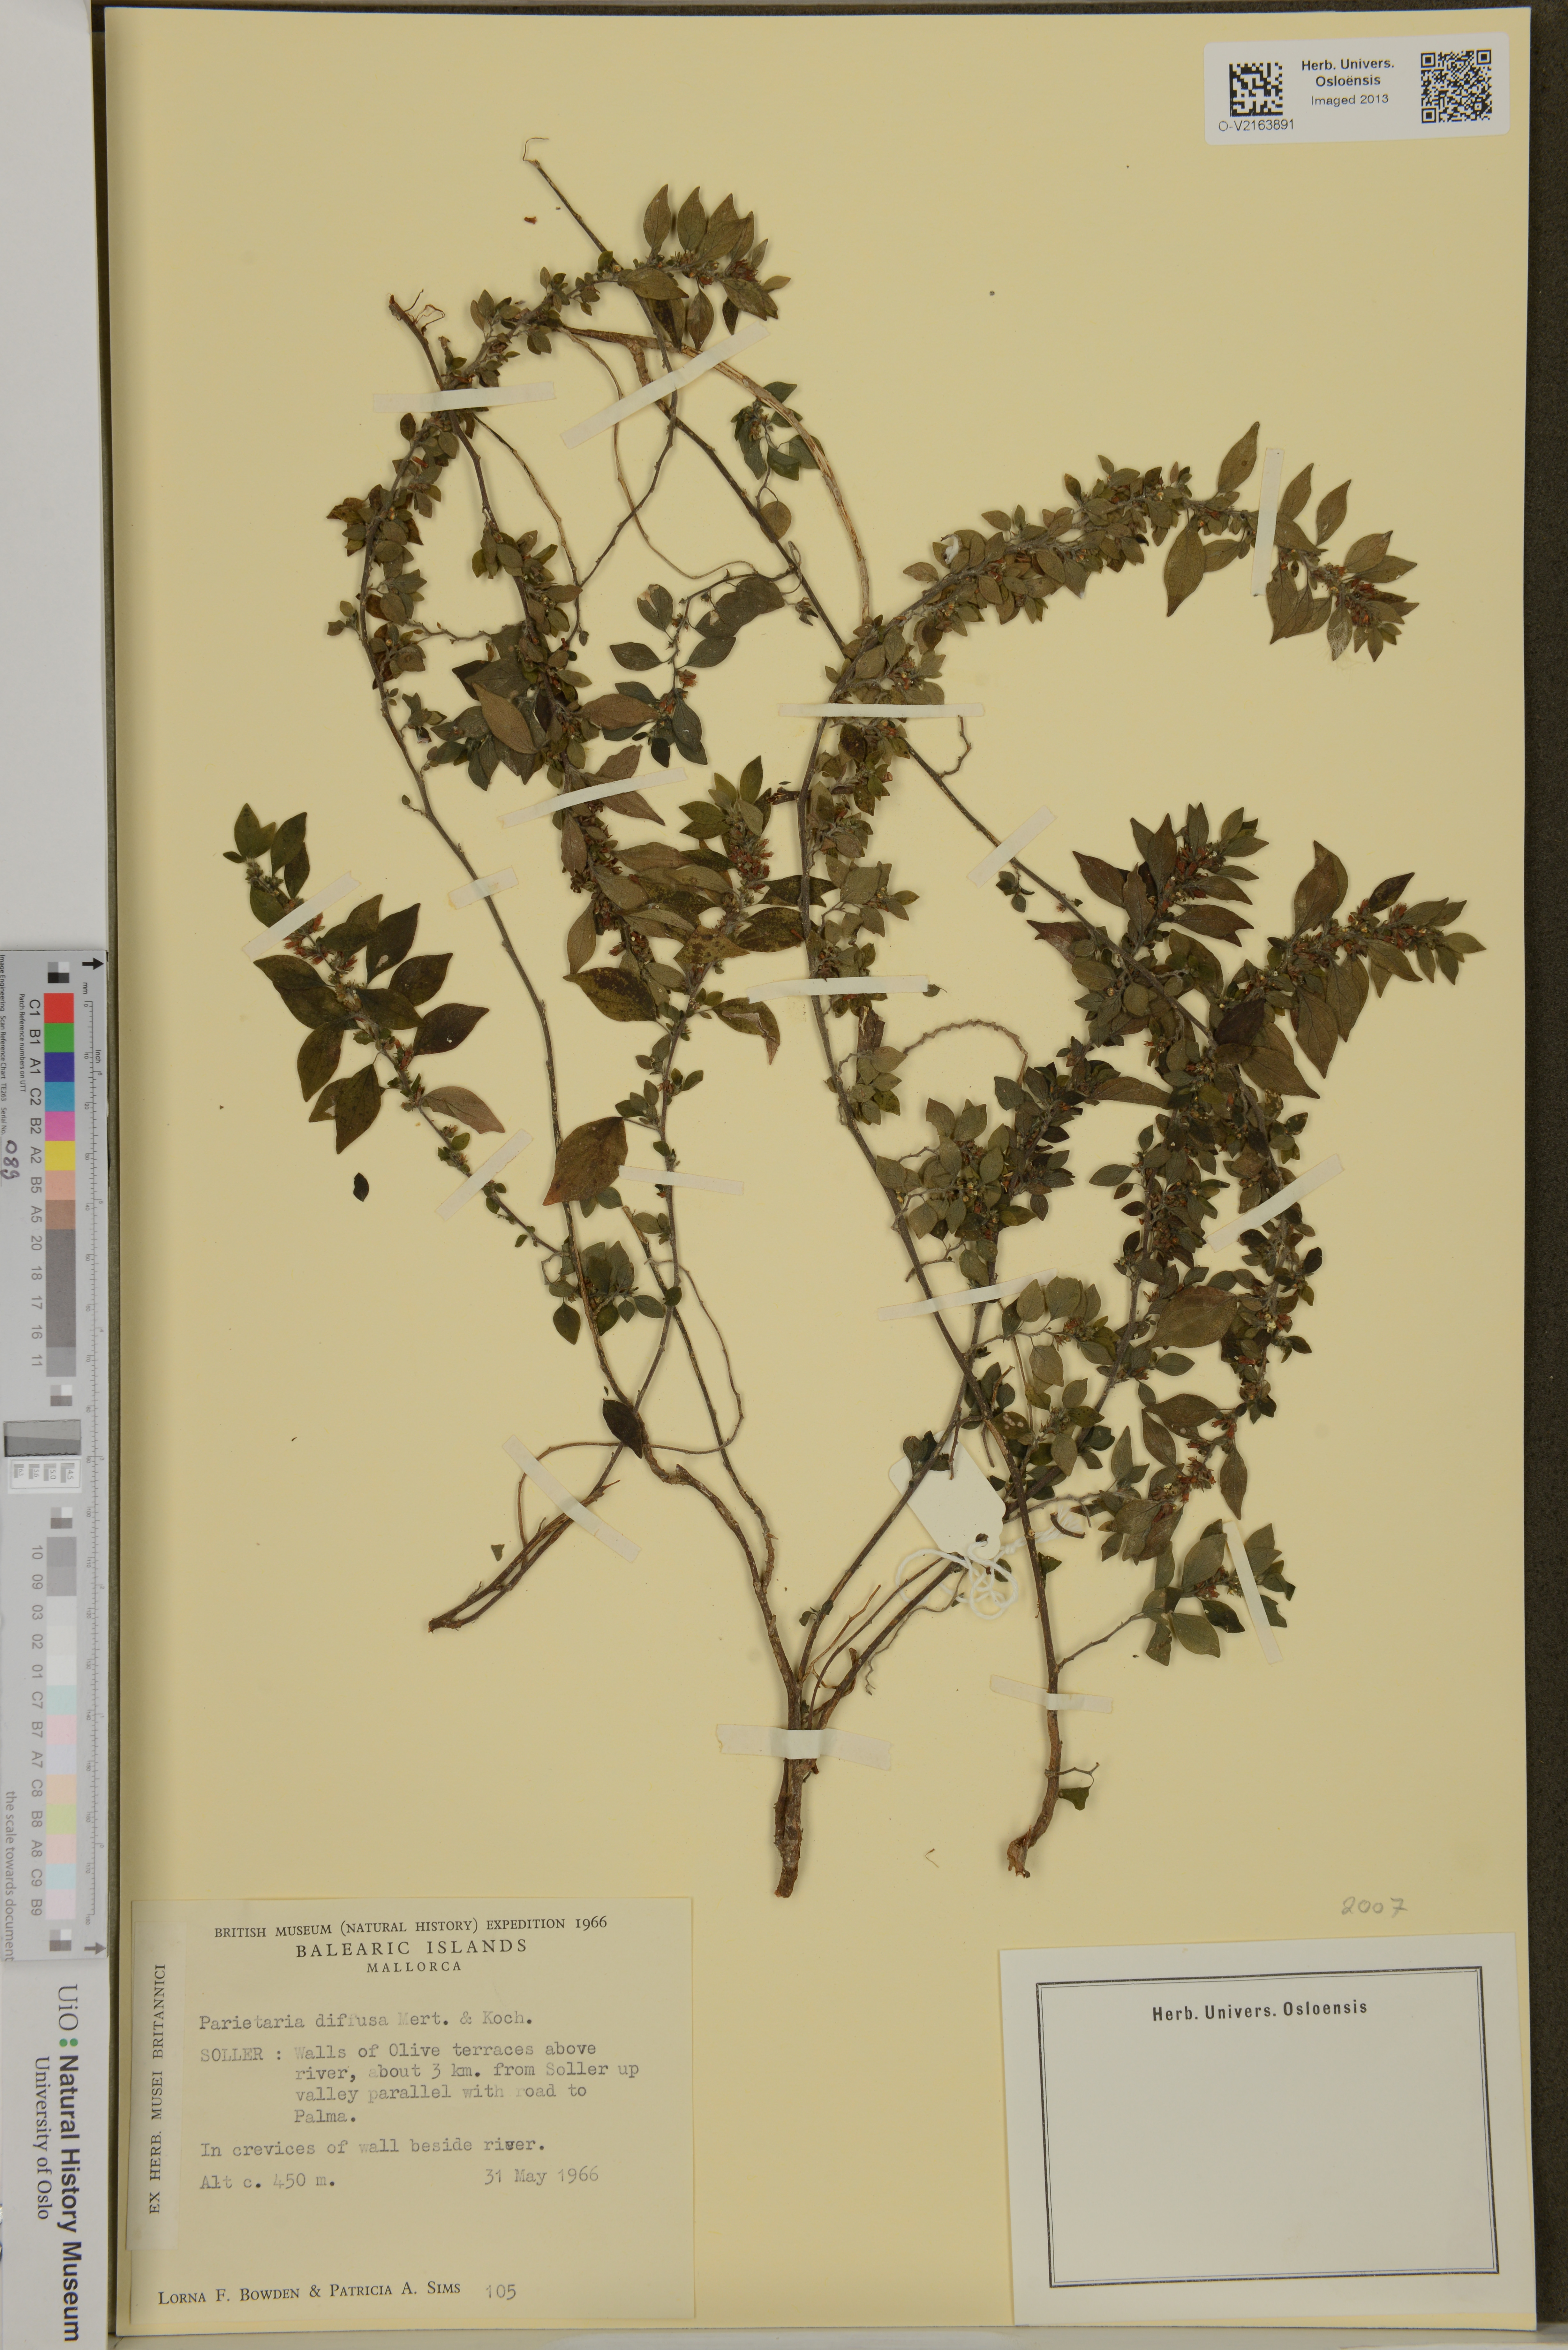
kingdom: Plantae
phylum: Tracheophyta
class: Magnoliopsida
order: Rosales
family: Urticaceae
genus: Parietaria
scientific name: Parietaria judaica
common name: Pellitory-of-the-wall
